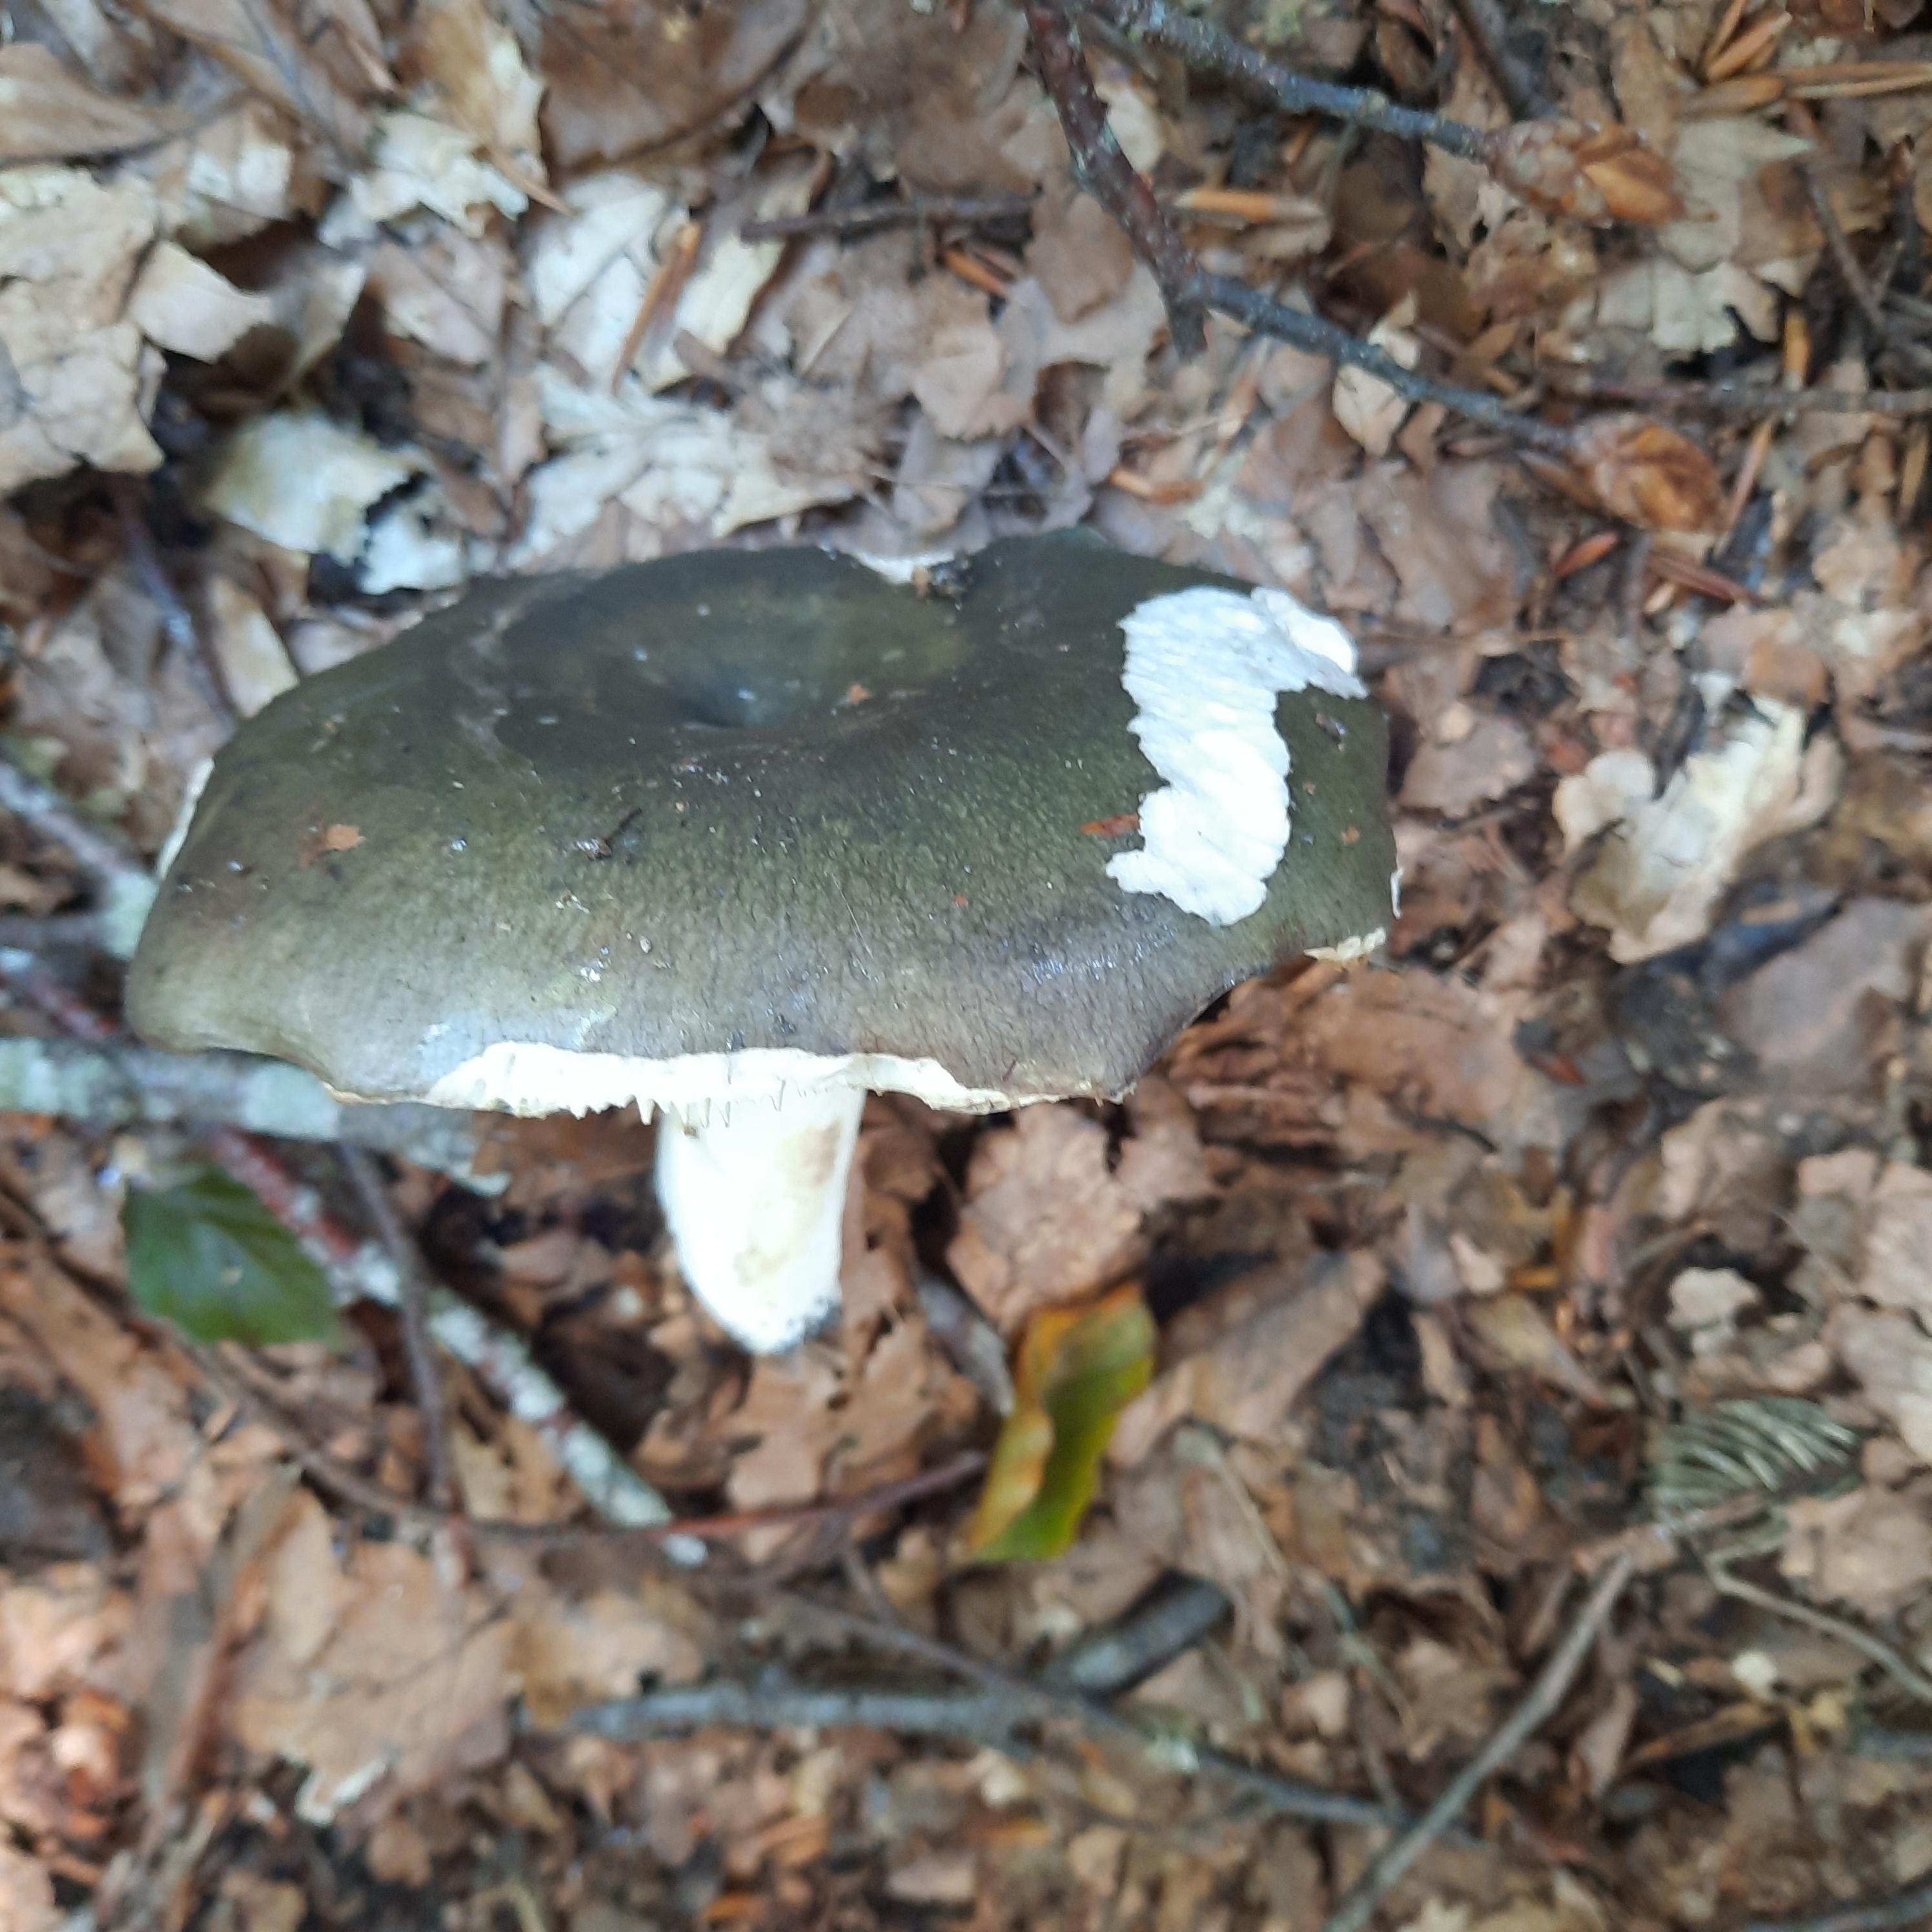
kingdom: Fungi
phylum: Basidiomycota
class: Agaricomycetes
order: Russulales
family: Russulaceae
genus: Russula
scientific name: Russula cyanoxantha
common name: broget skørhat
